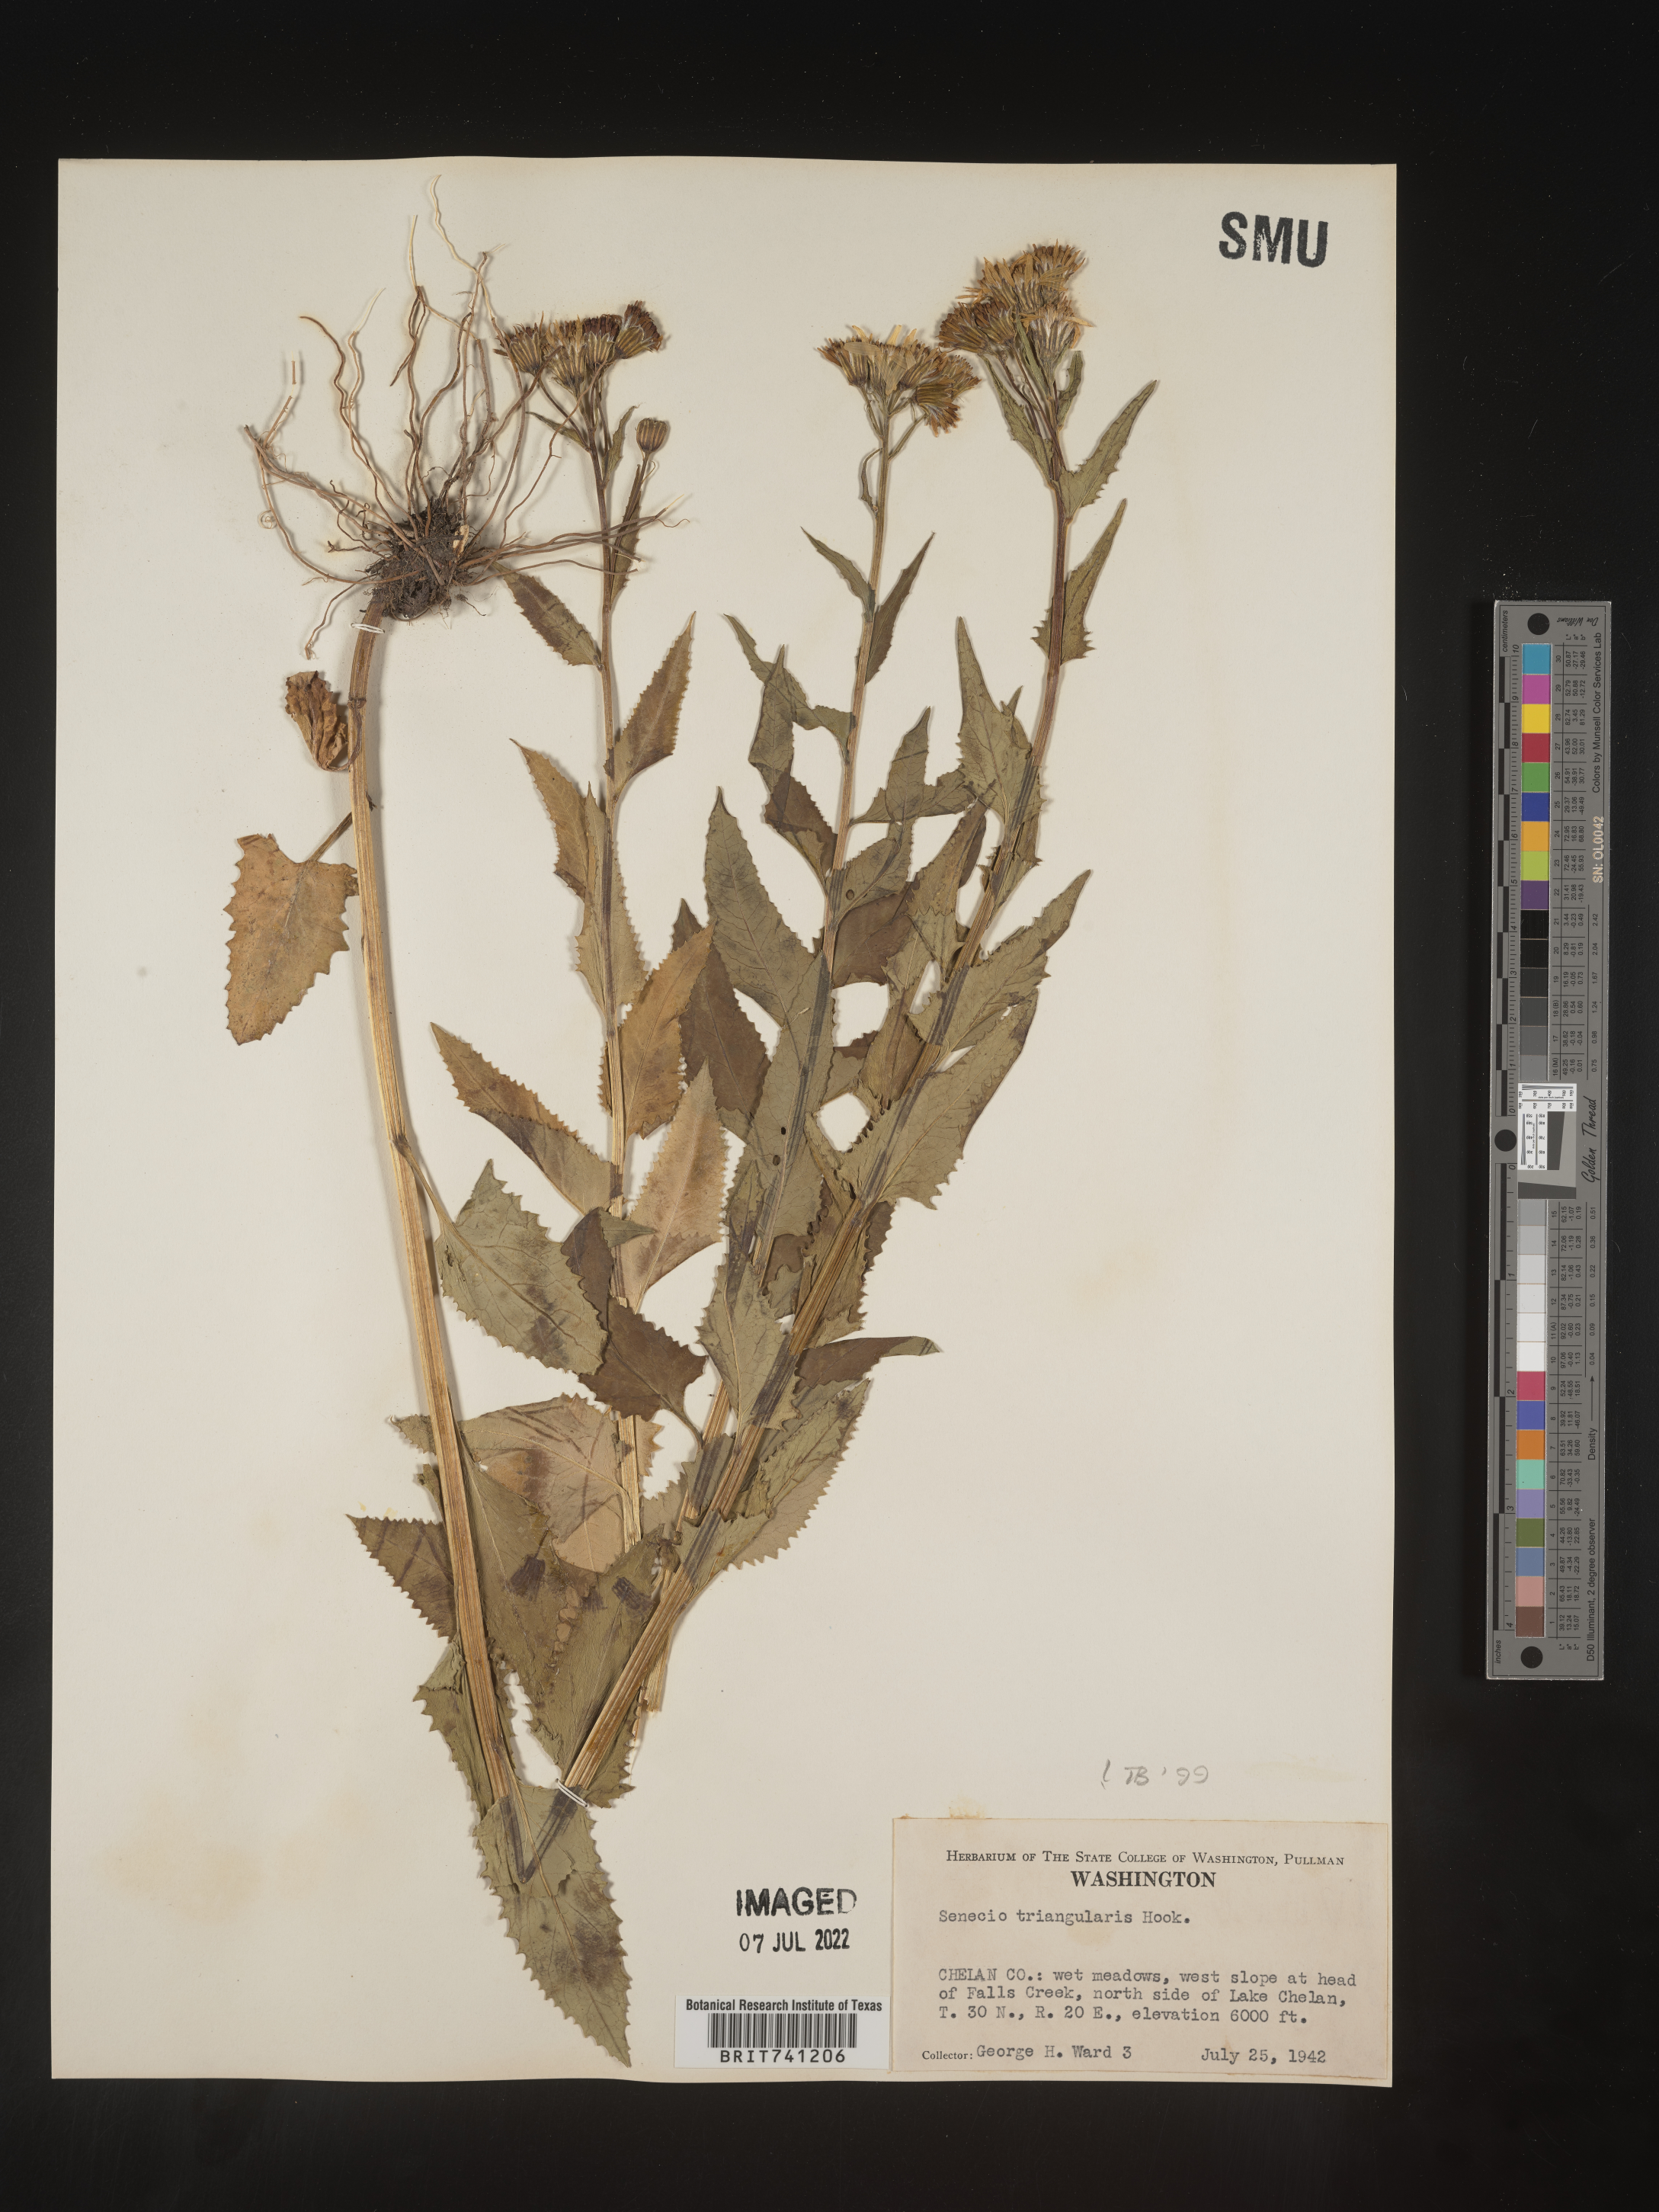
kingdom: Plantae
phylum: Tracheophyta
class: Magnoliopsida
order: Asterales
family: Asteraceae
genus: Senecio
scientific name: Senecio triangularis
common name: Arrowleaf butterweed
